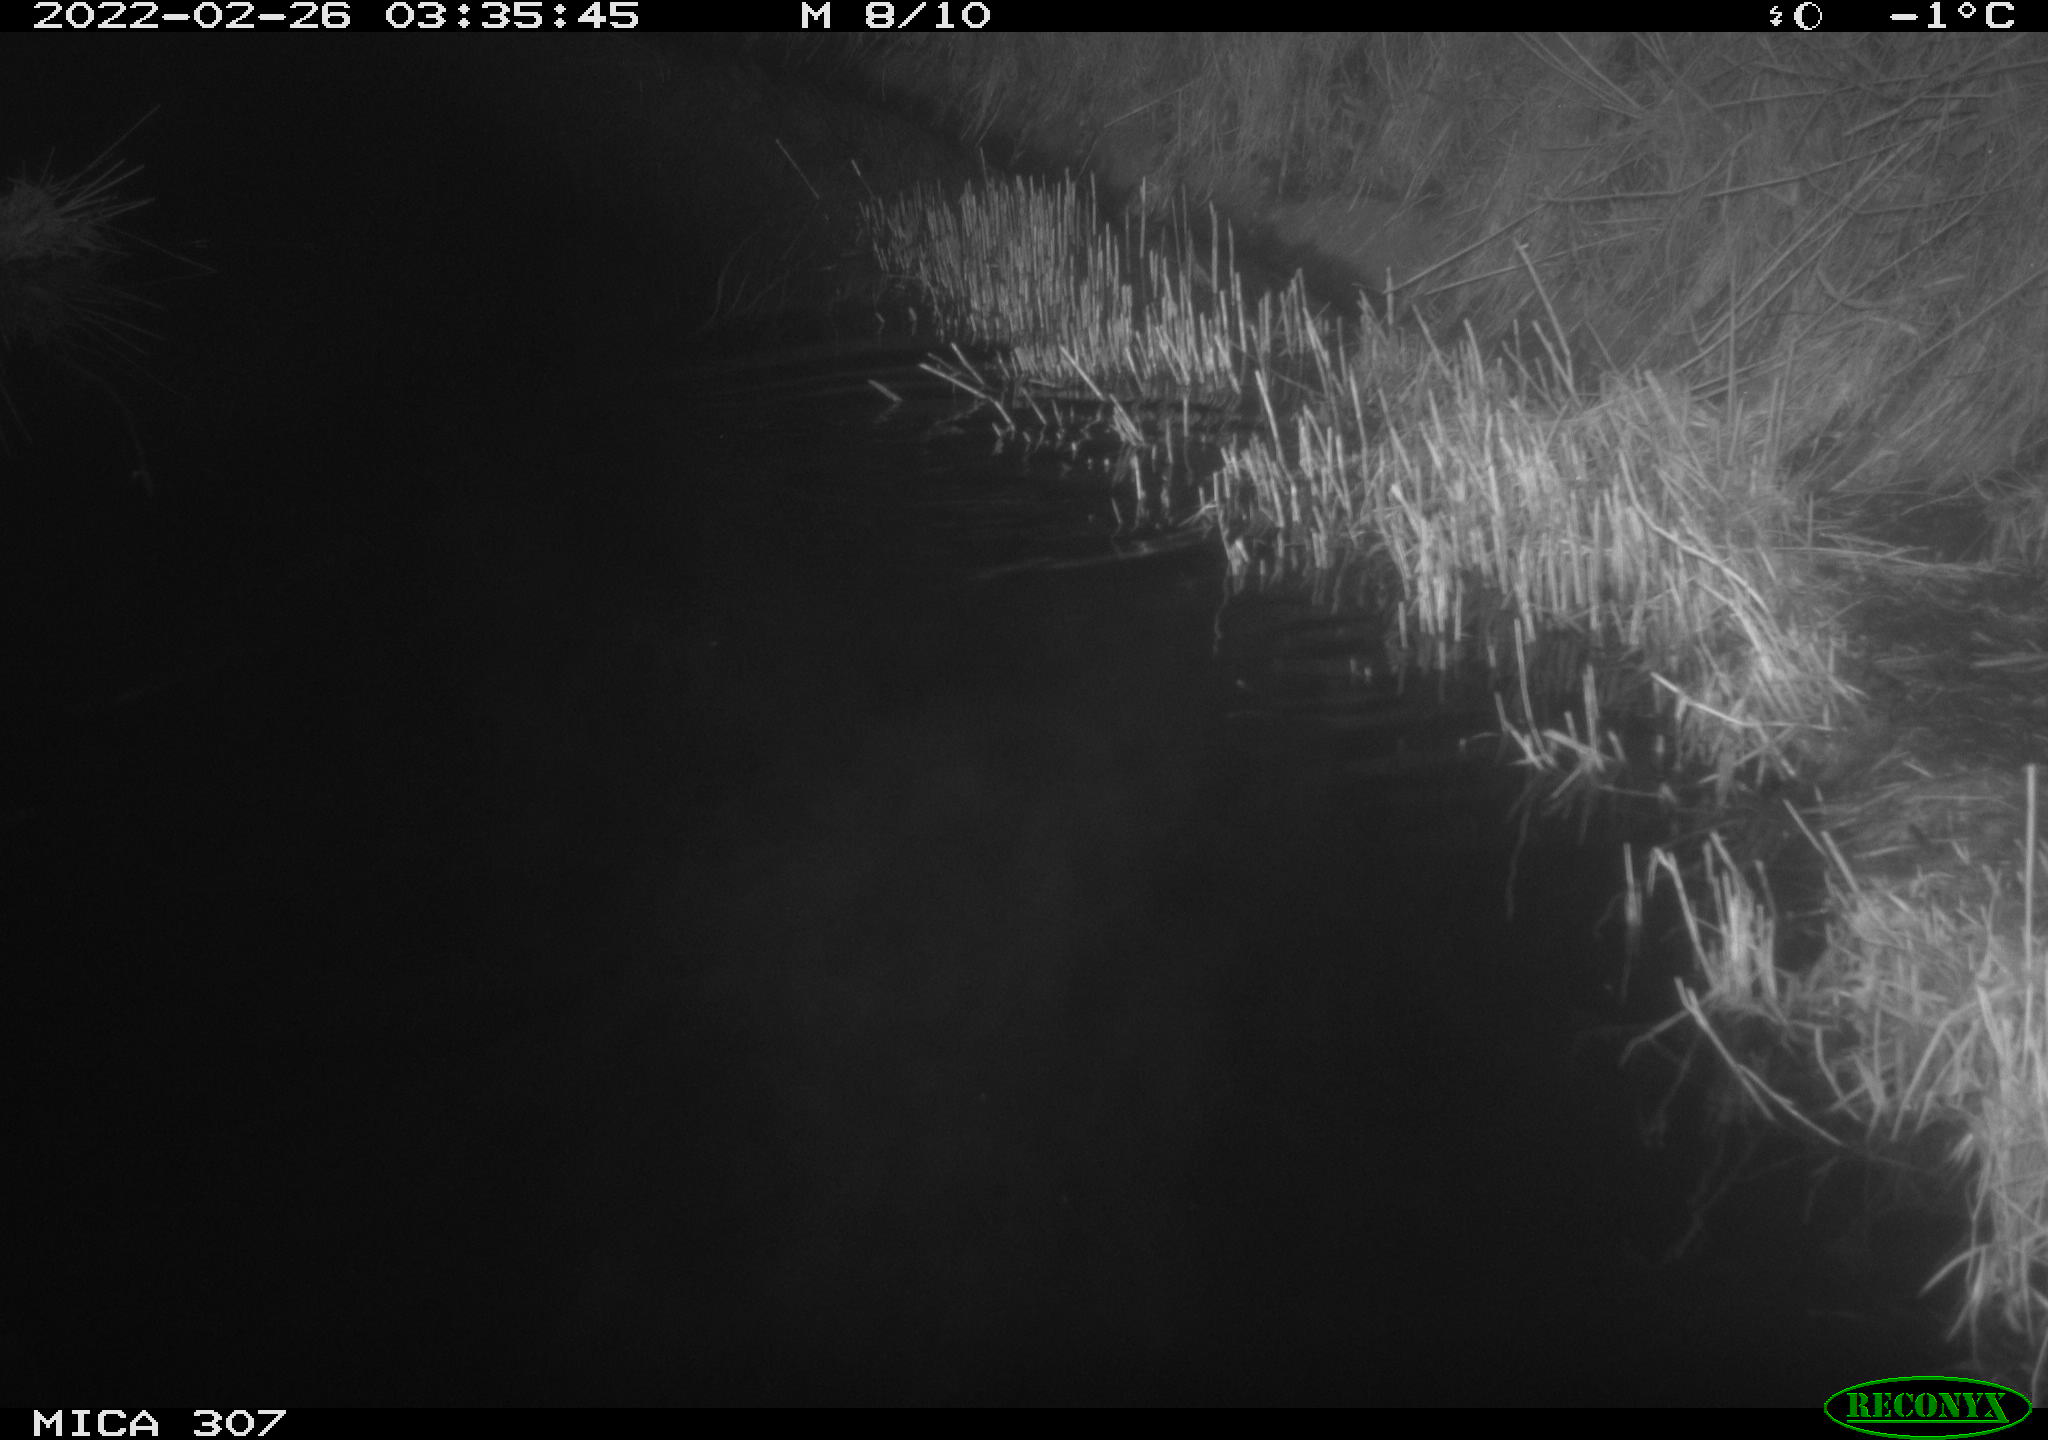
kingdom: Animalia
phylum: Chordata
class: Mammalia
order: Rodentia
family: Cricetidae
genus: Ondatra
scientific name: Ondatra zibethicus
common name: Muskrat
